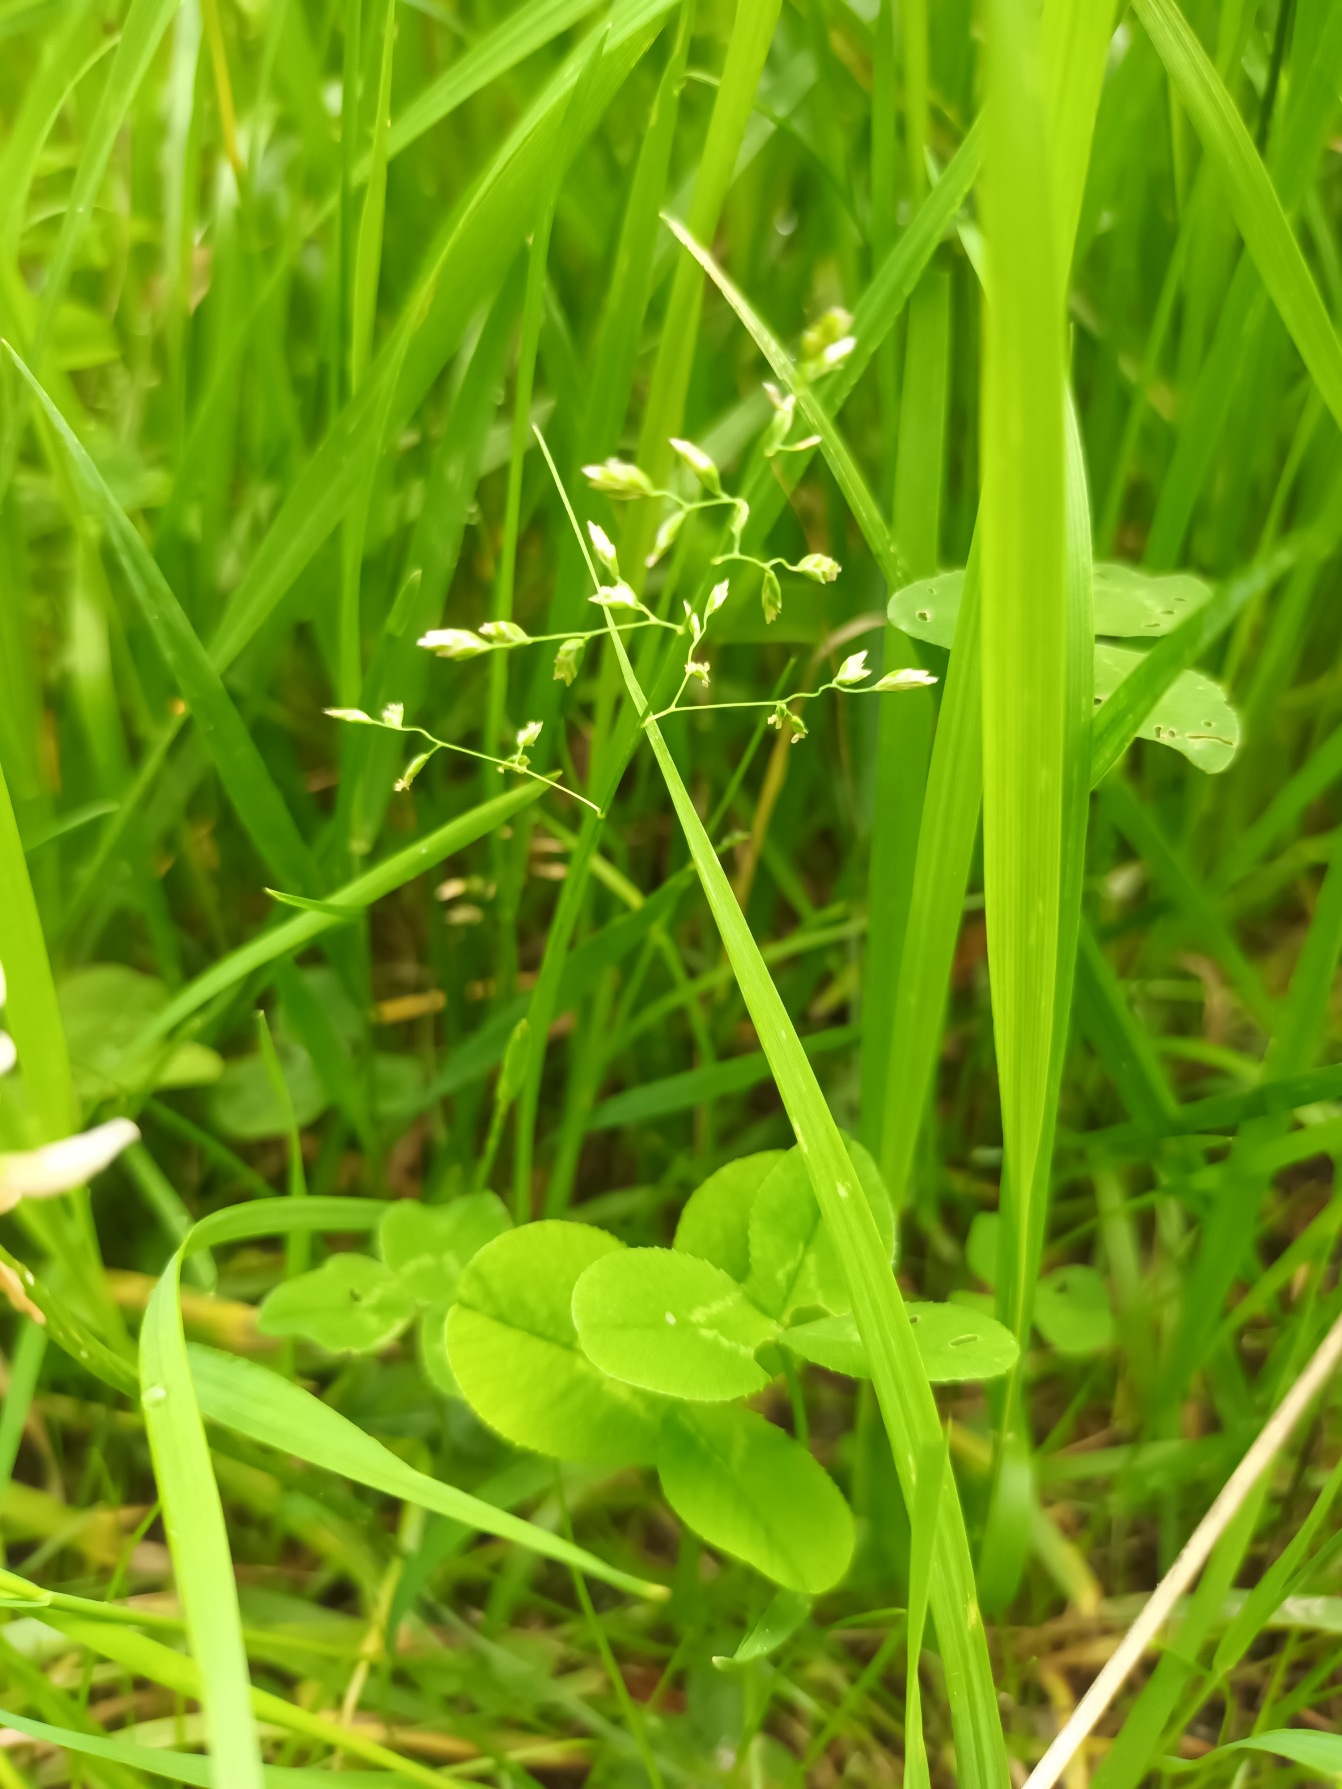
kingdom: Plantae
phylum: Tracheophyta
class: Liliopsida
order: Poales
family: Poaceae
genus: Poa
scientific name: Poa annua
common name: Enårig rapgræs
